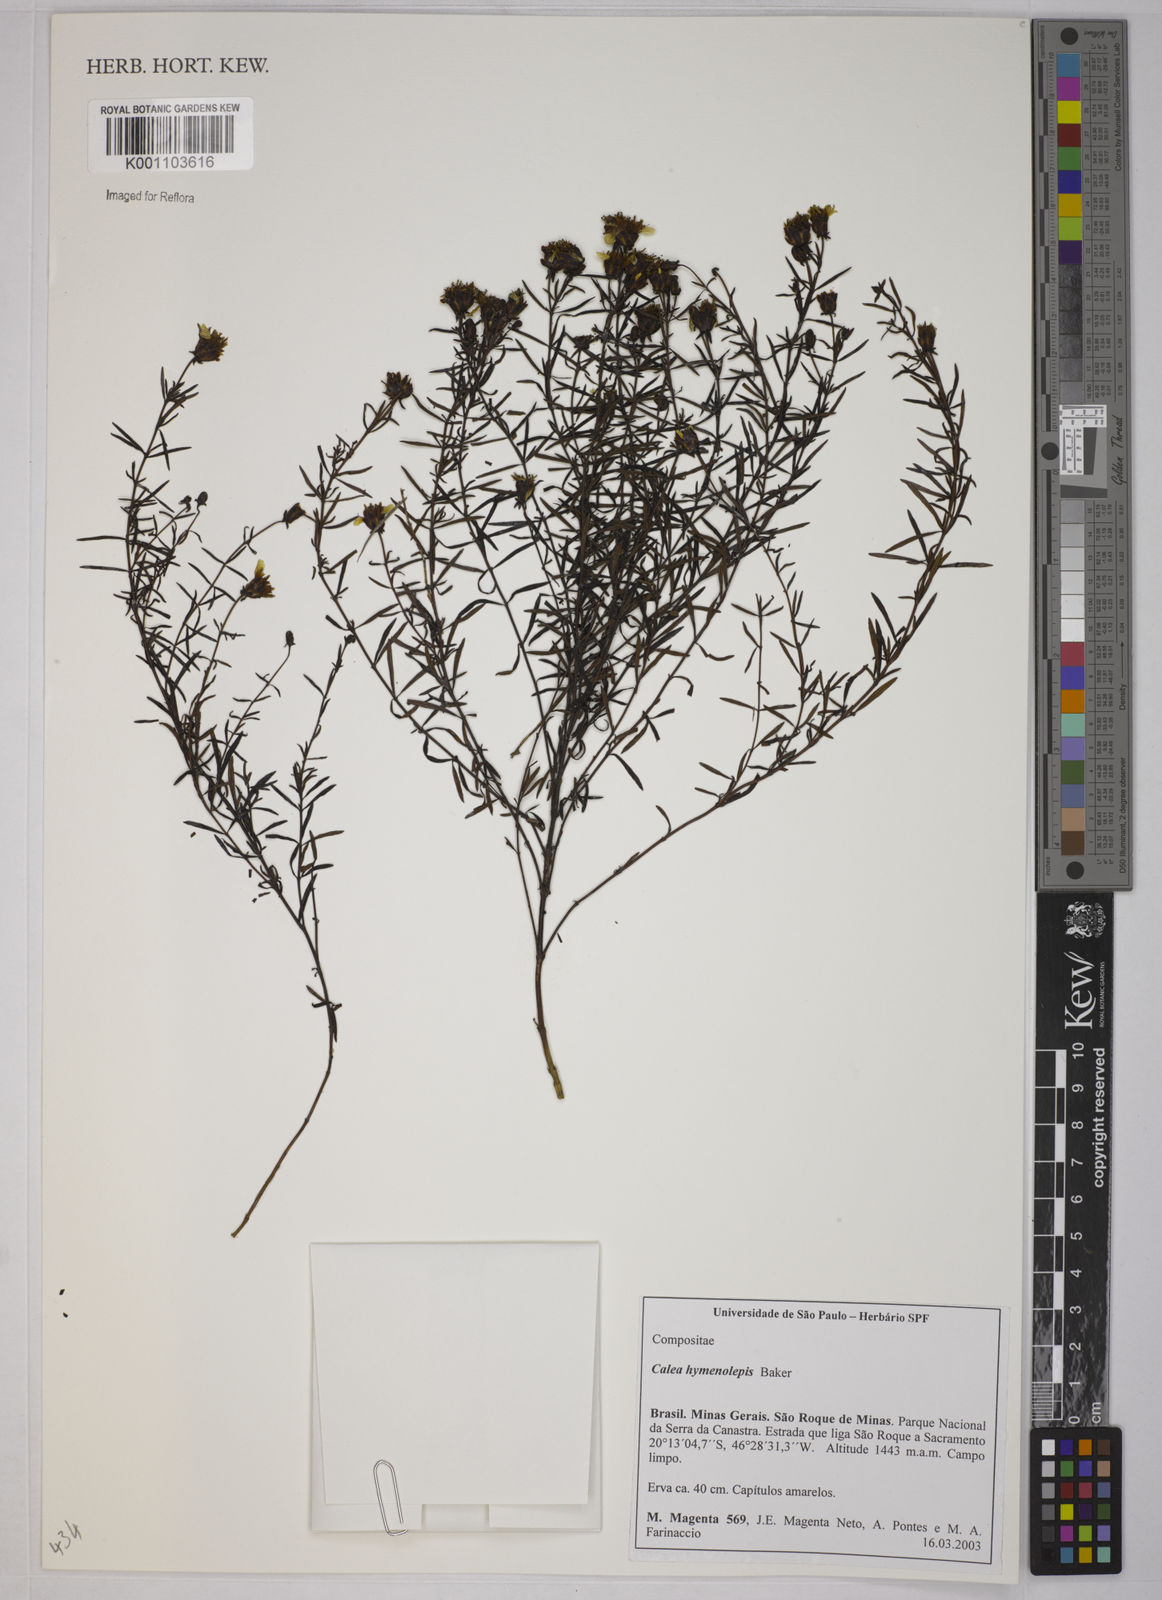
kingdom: Plantae
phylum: Tracheophyta
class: Magnoliopsida
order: Asterales
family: Asteraceae
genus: Calea
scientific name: Calea hymenolepis
